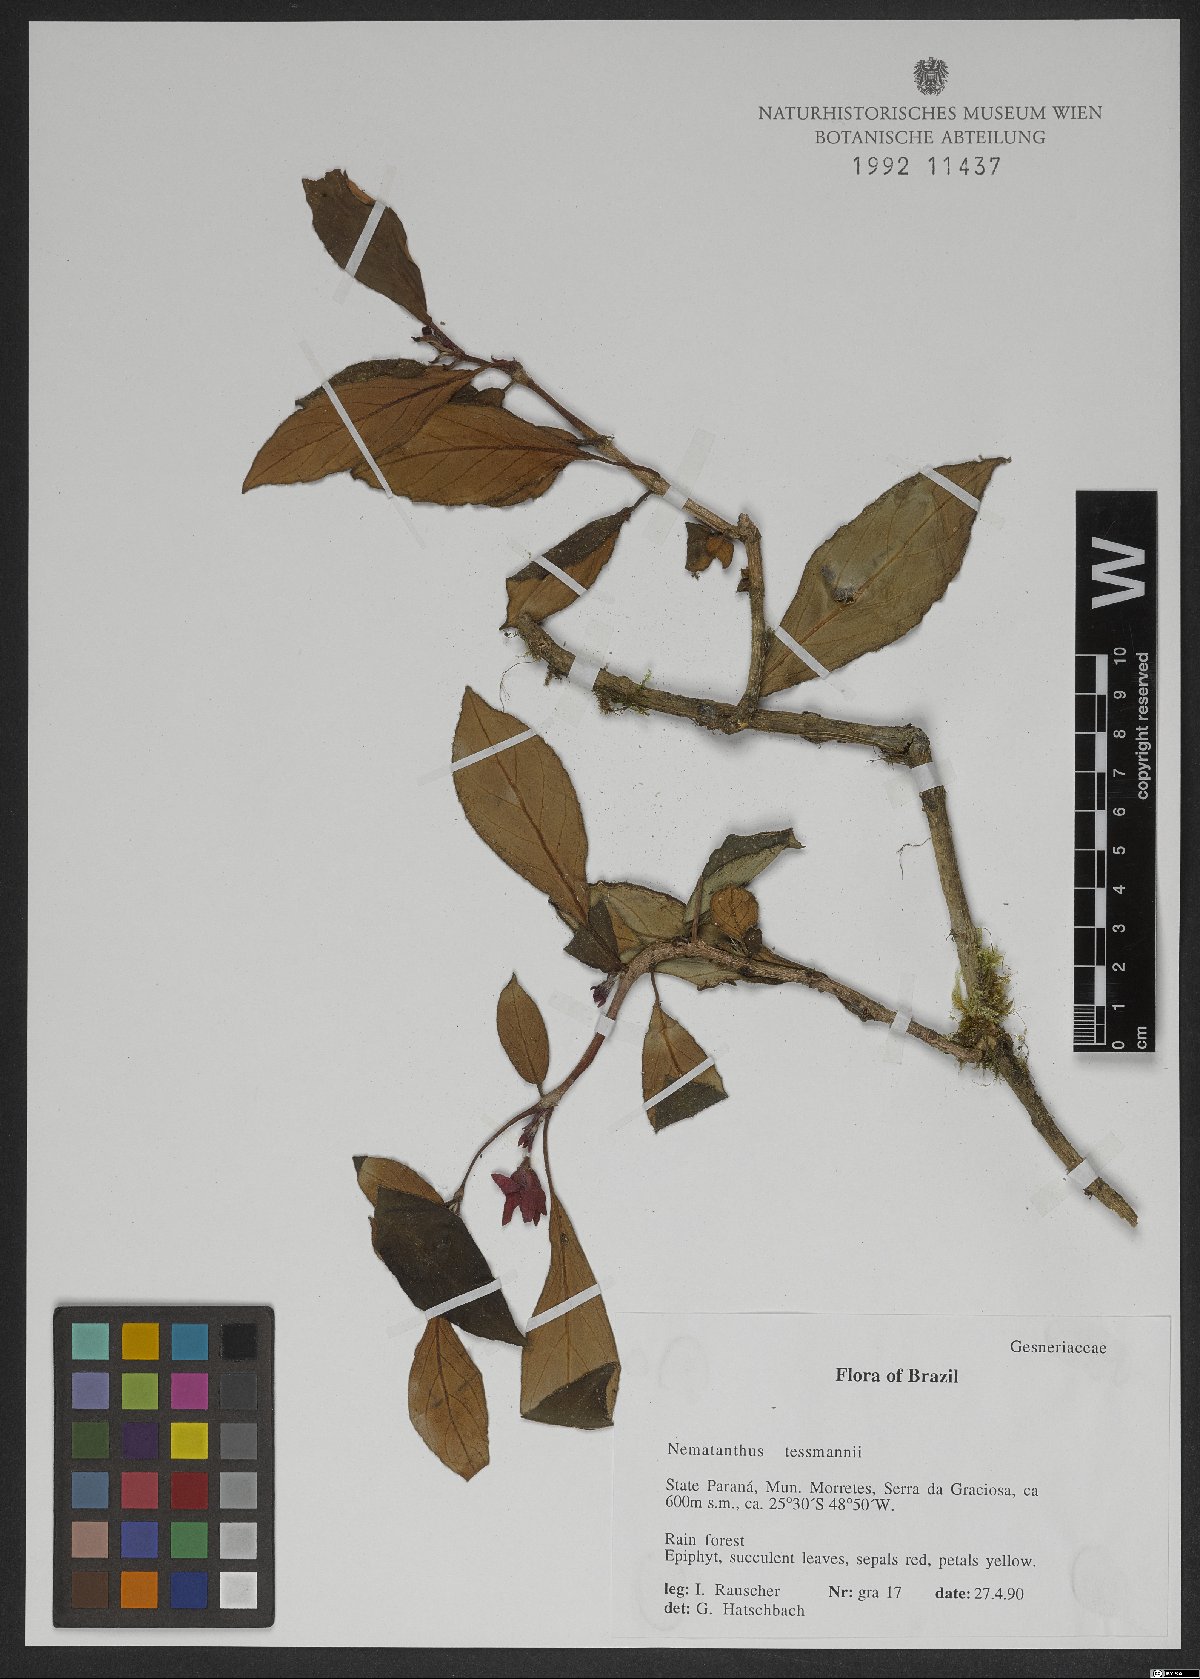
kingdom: Plantae
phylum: Tracheophyta
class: Magnoliopsida
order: Lamiales
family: Gesneriaceae
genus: Nematanthus
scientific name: Nematanthus tessmannii
